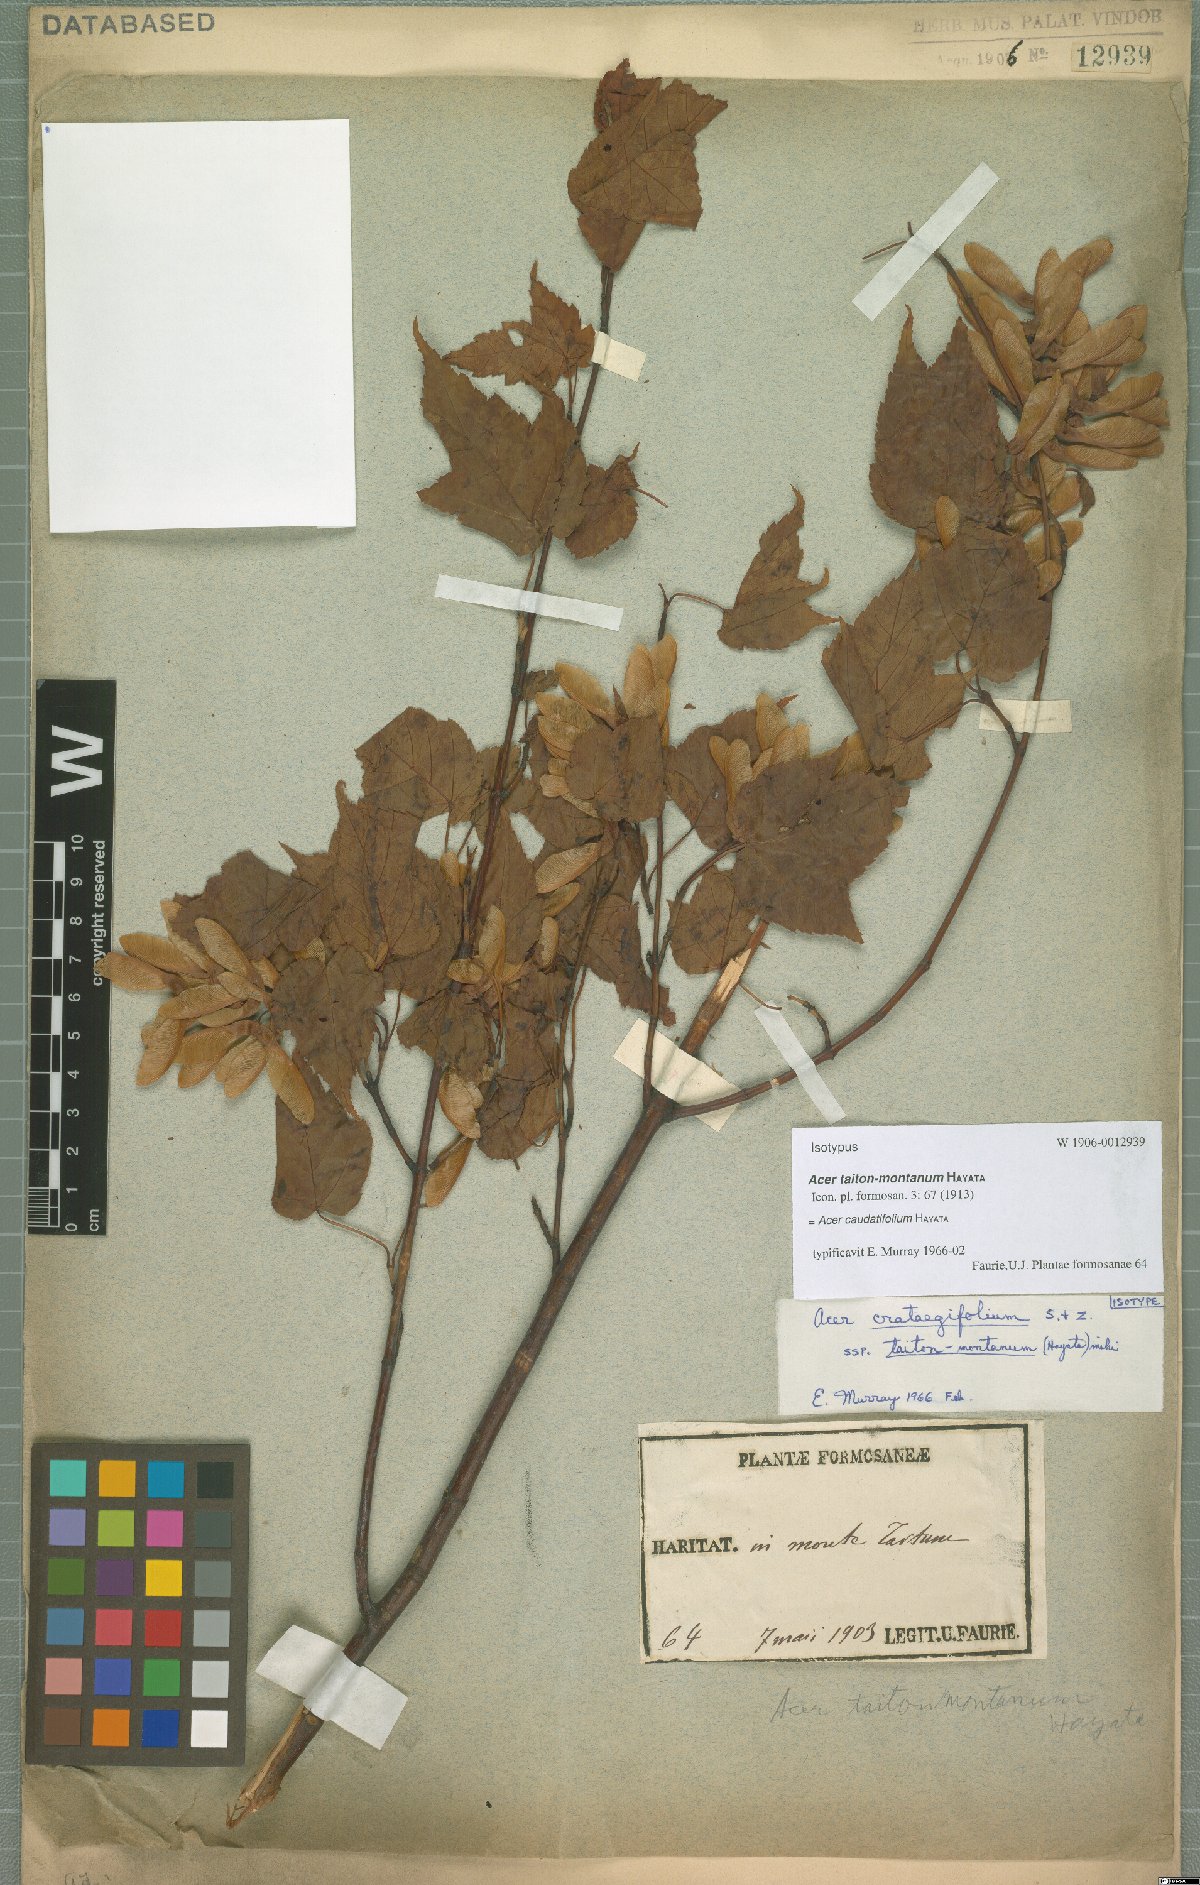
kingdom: Plantae
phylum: Tracheophyta
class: Magnoliopsida
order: Sapindales
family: Sapindaceae
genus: Acer
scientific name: Acer caudatifolium
